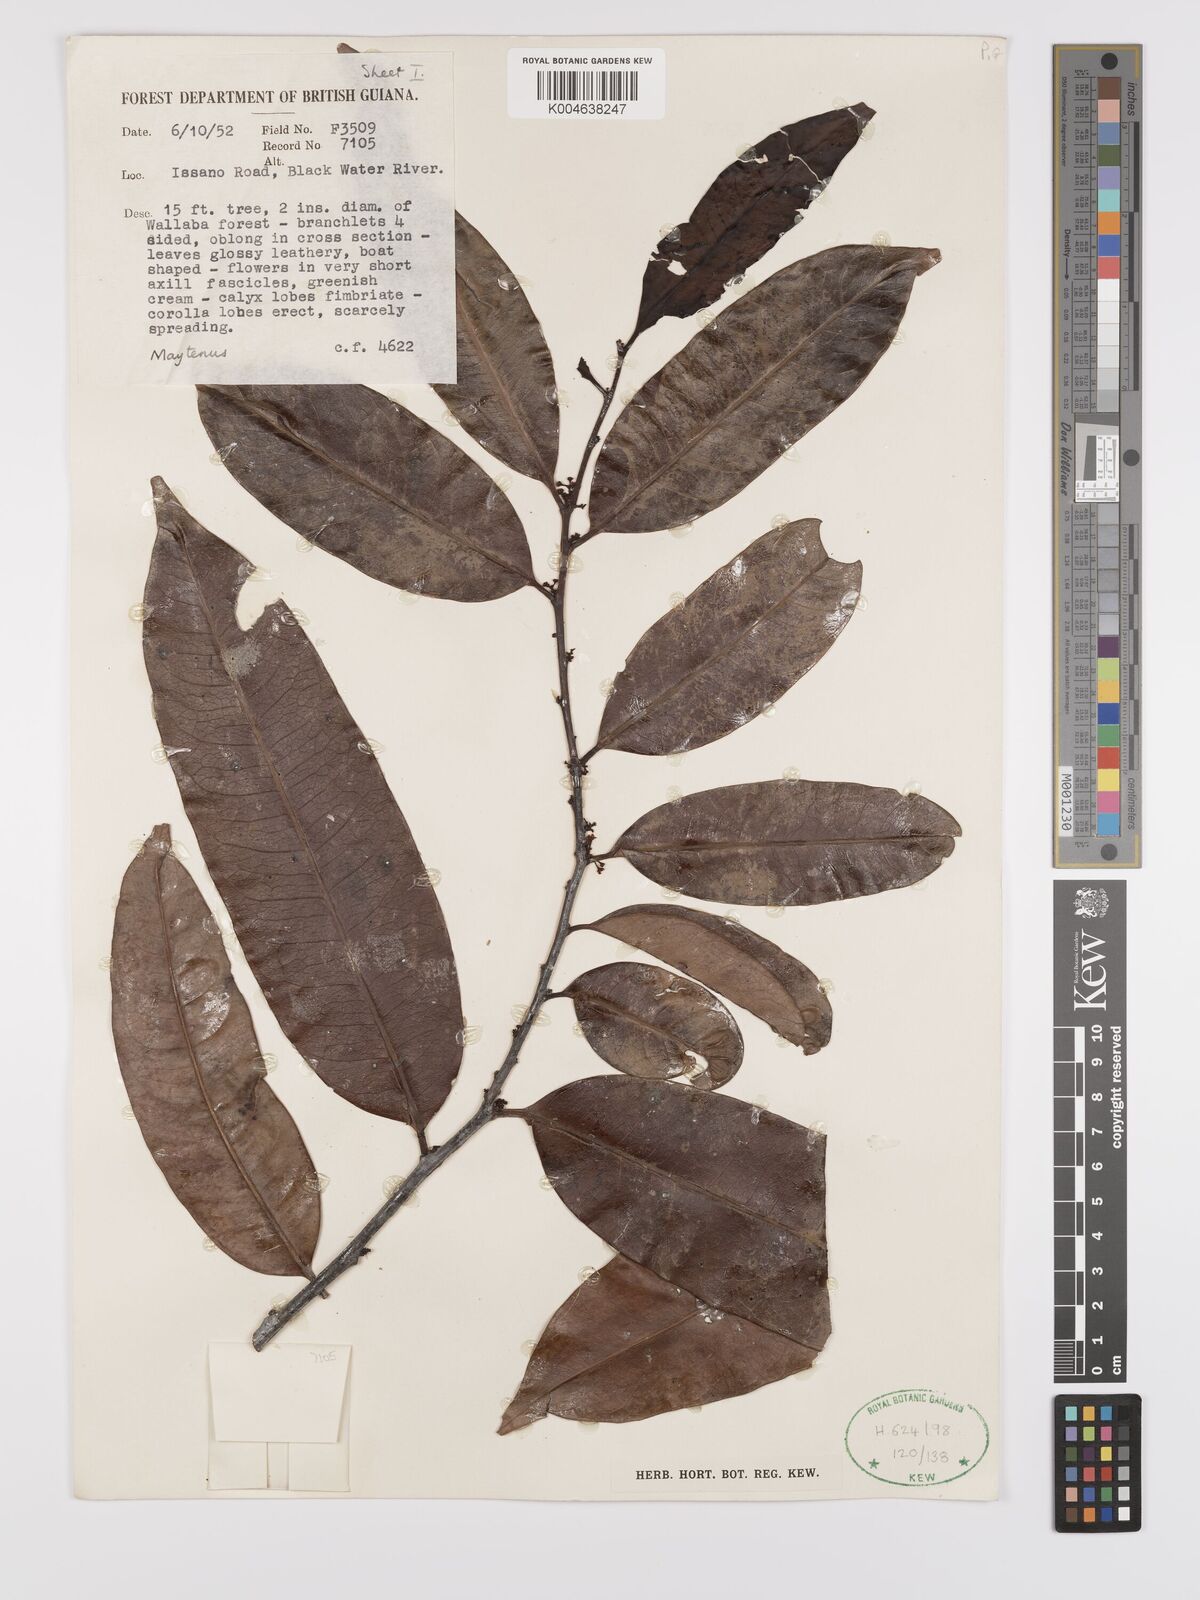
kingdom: Plantae
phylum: Tracheophyta
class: Magnoliopsida
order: Celastrales
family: Celastraceae
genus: Maytenus
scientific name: Maytenus
